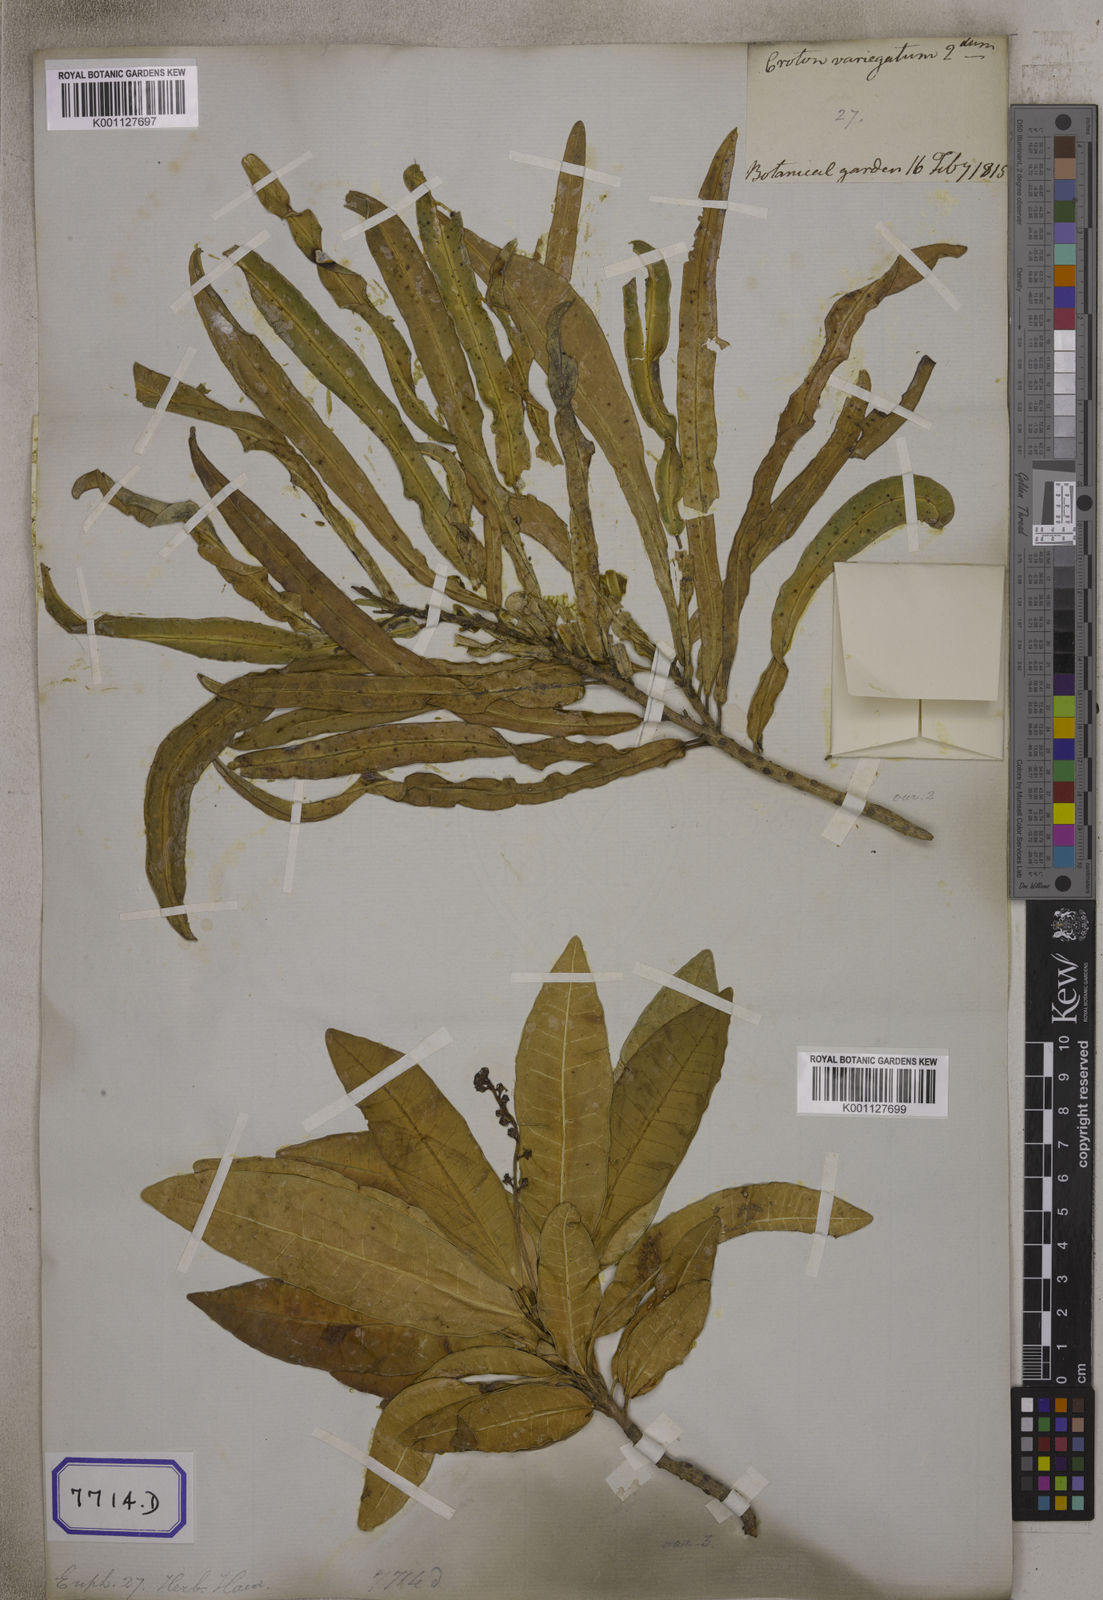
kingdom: Plantae
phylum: Tracheophyta
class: Magnoliopsida
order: Malpighiales
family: Euphorbiaceae
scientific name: Euphorbiaceae
